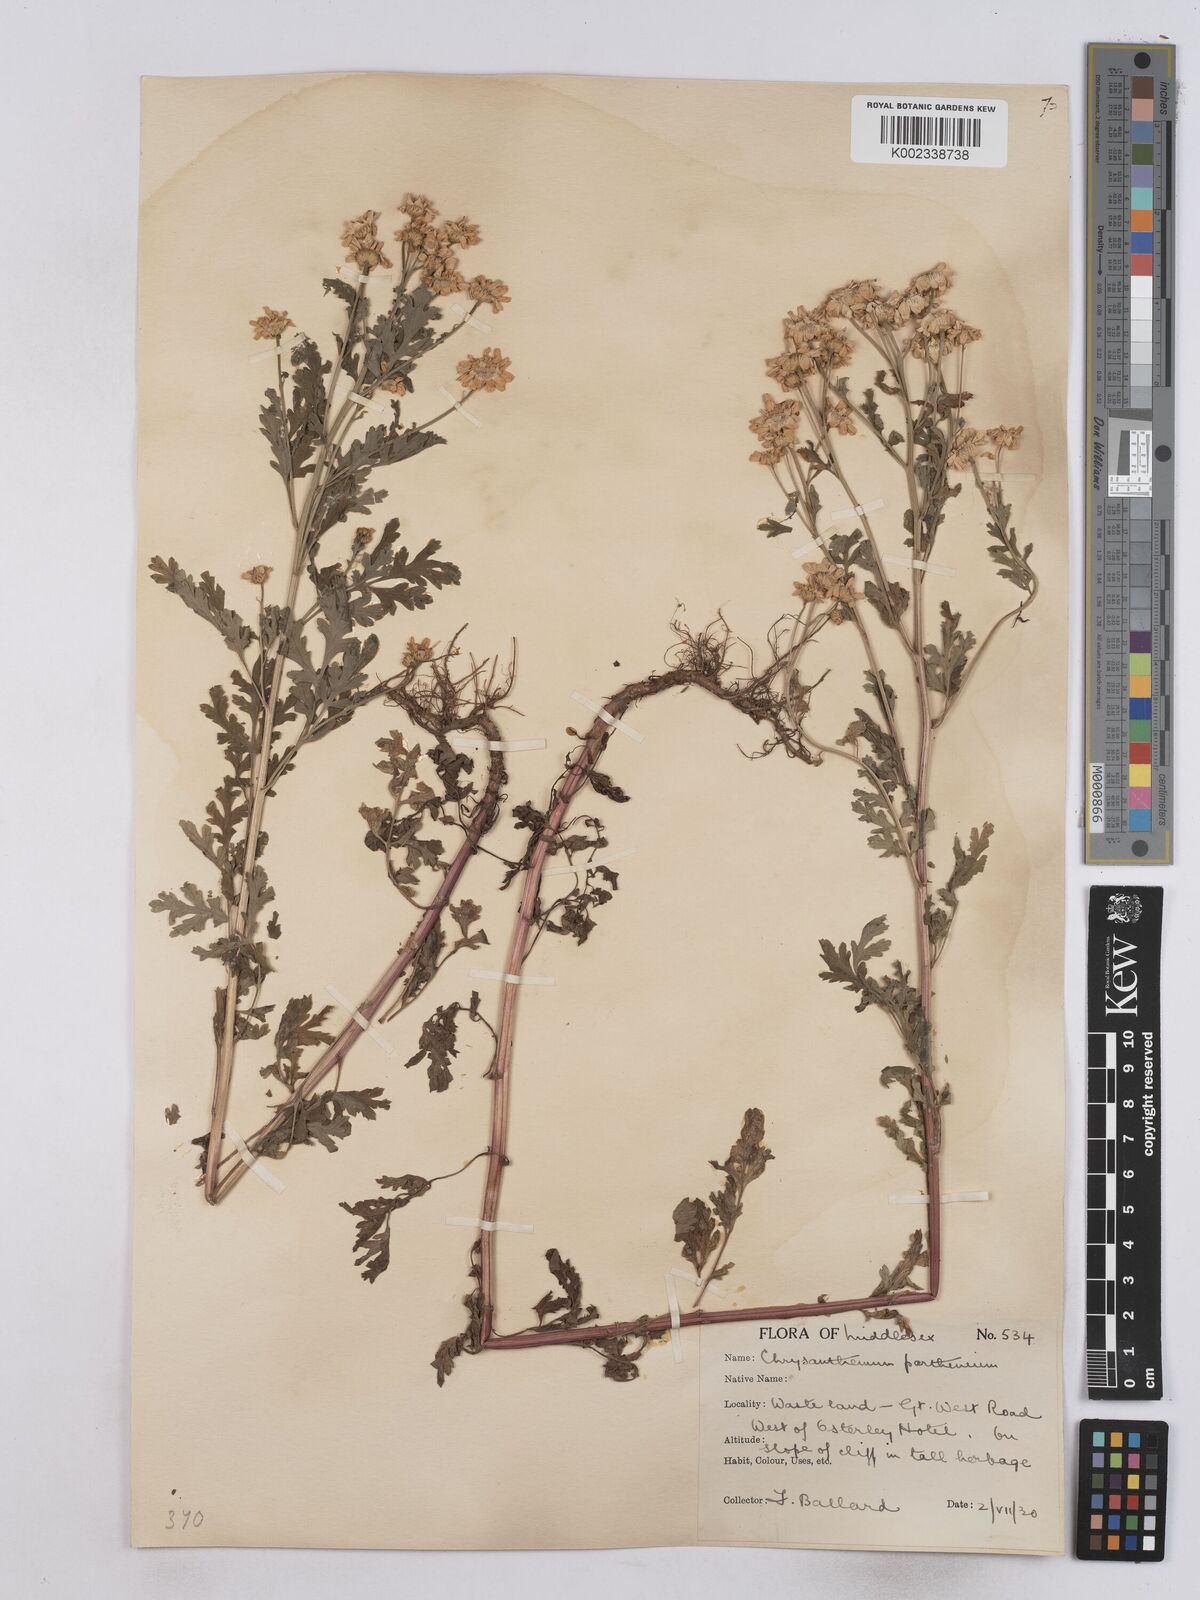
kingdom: Plantae
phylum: Tracheophyta
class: Magnoliopsida
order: Asterales
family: Asteraceae
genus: Tanacetum
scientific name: Tanacetum parthenium
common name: Feverfew
